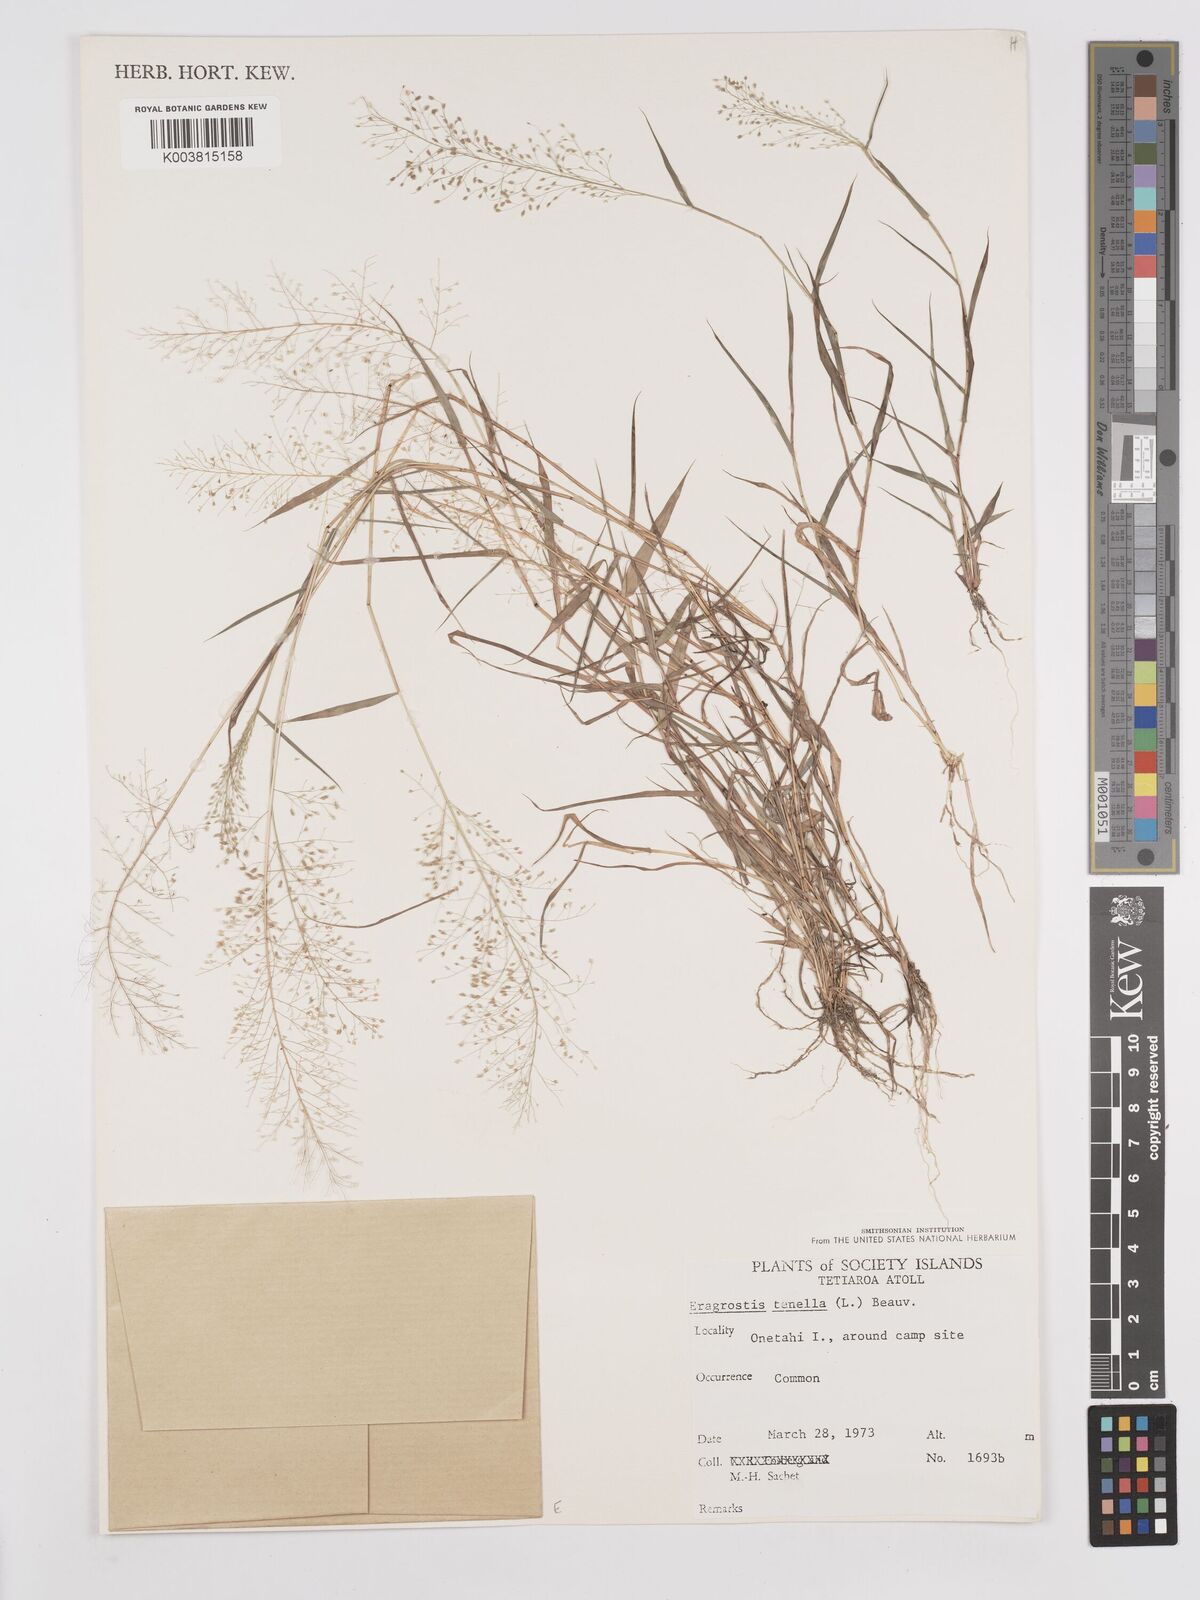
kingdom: Plantae
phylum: Tracheophyta
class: Liliopsida
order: Poales
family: Poaceae
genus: Eragrostis
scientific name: Eragrostis tenella
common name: Japanese lovegrass
